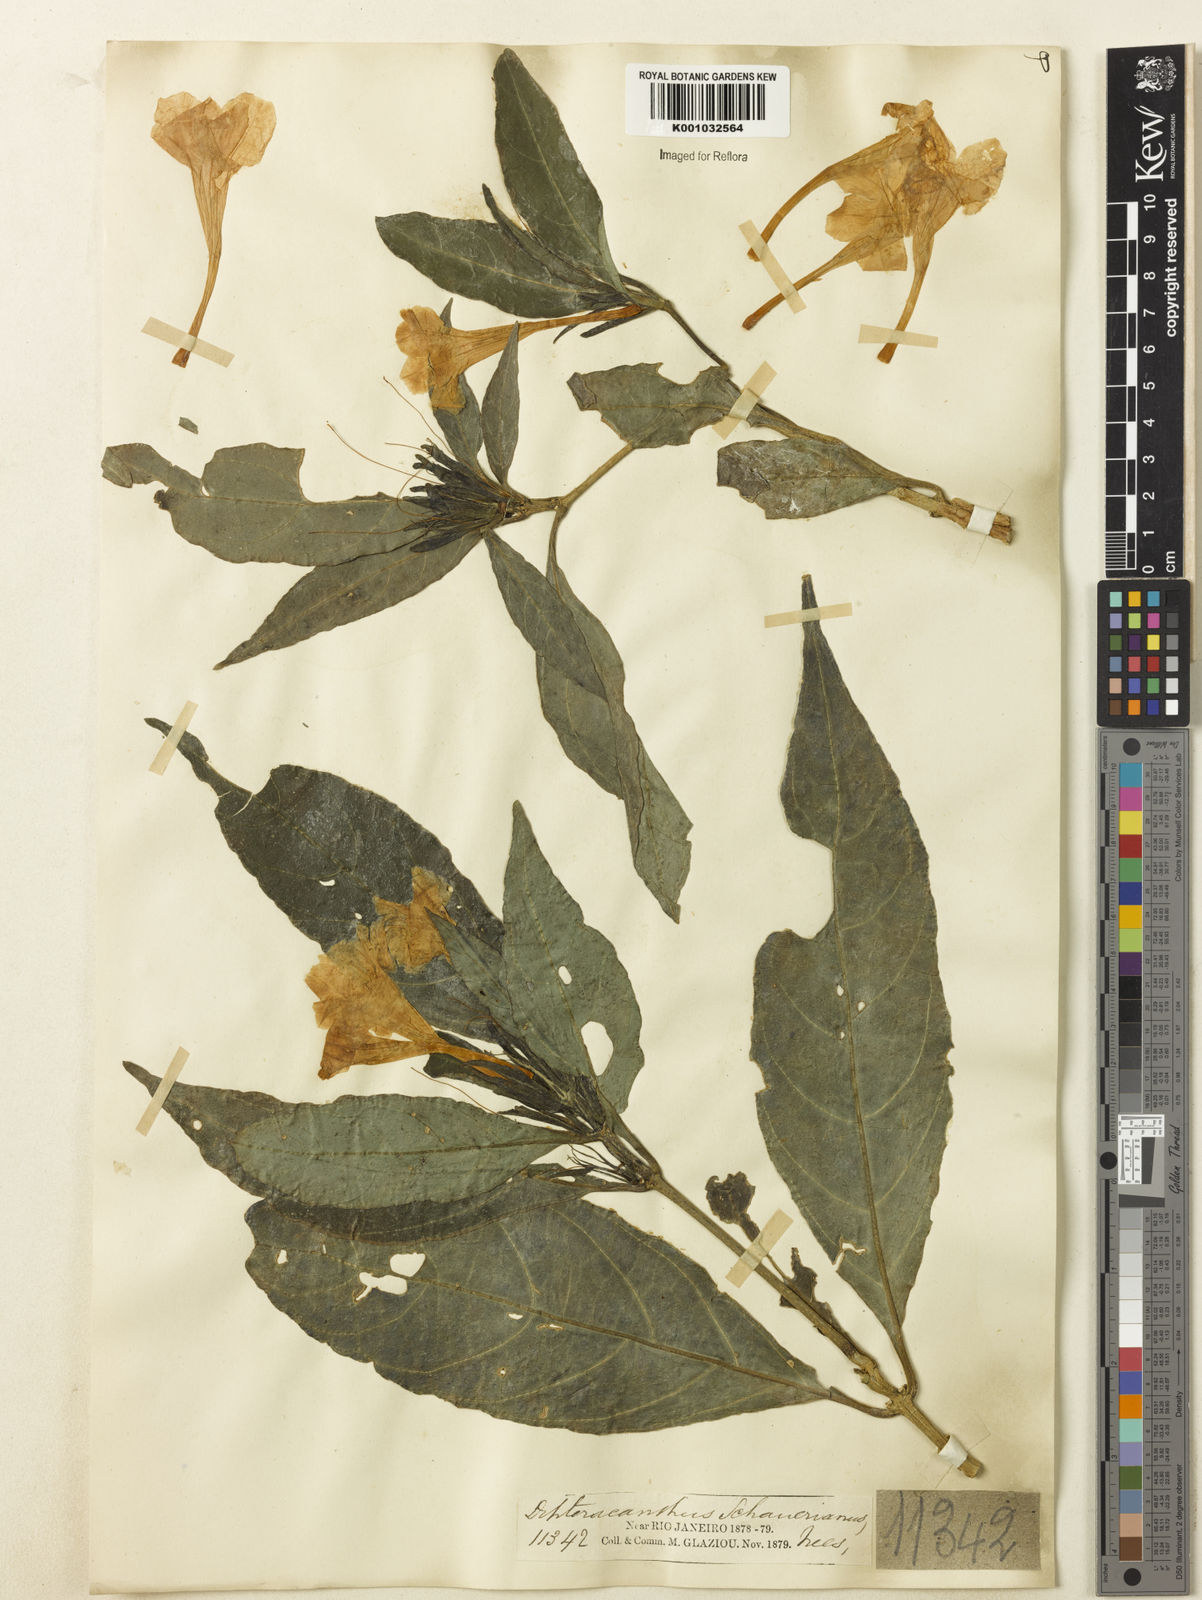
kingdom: Plantae
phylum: Tracheophyta
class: Magnoliopsida
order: Lamiales
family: Acanthaceae
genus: Ruellia
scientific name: Ruellia
